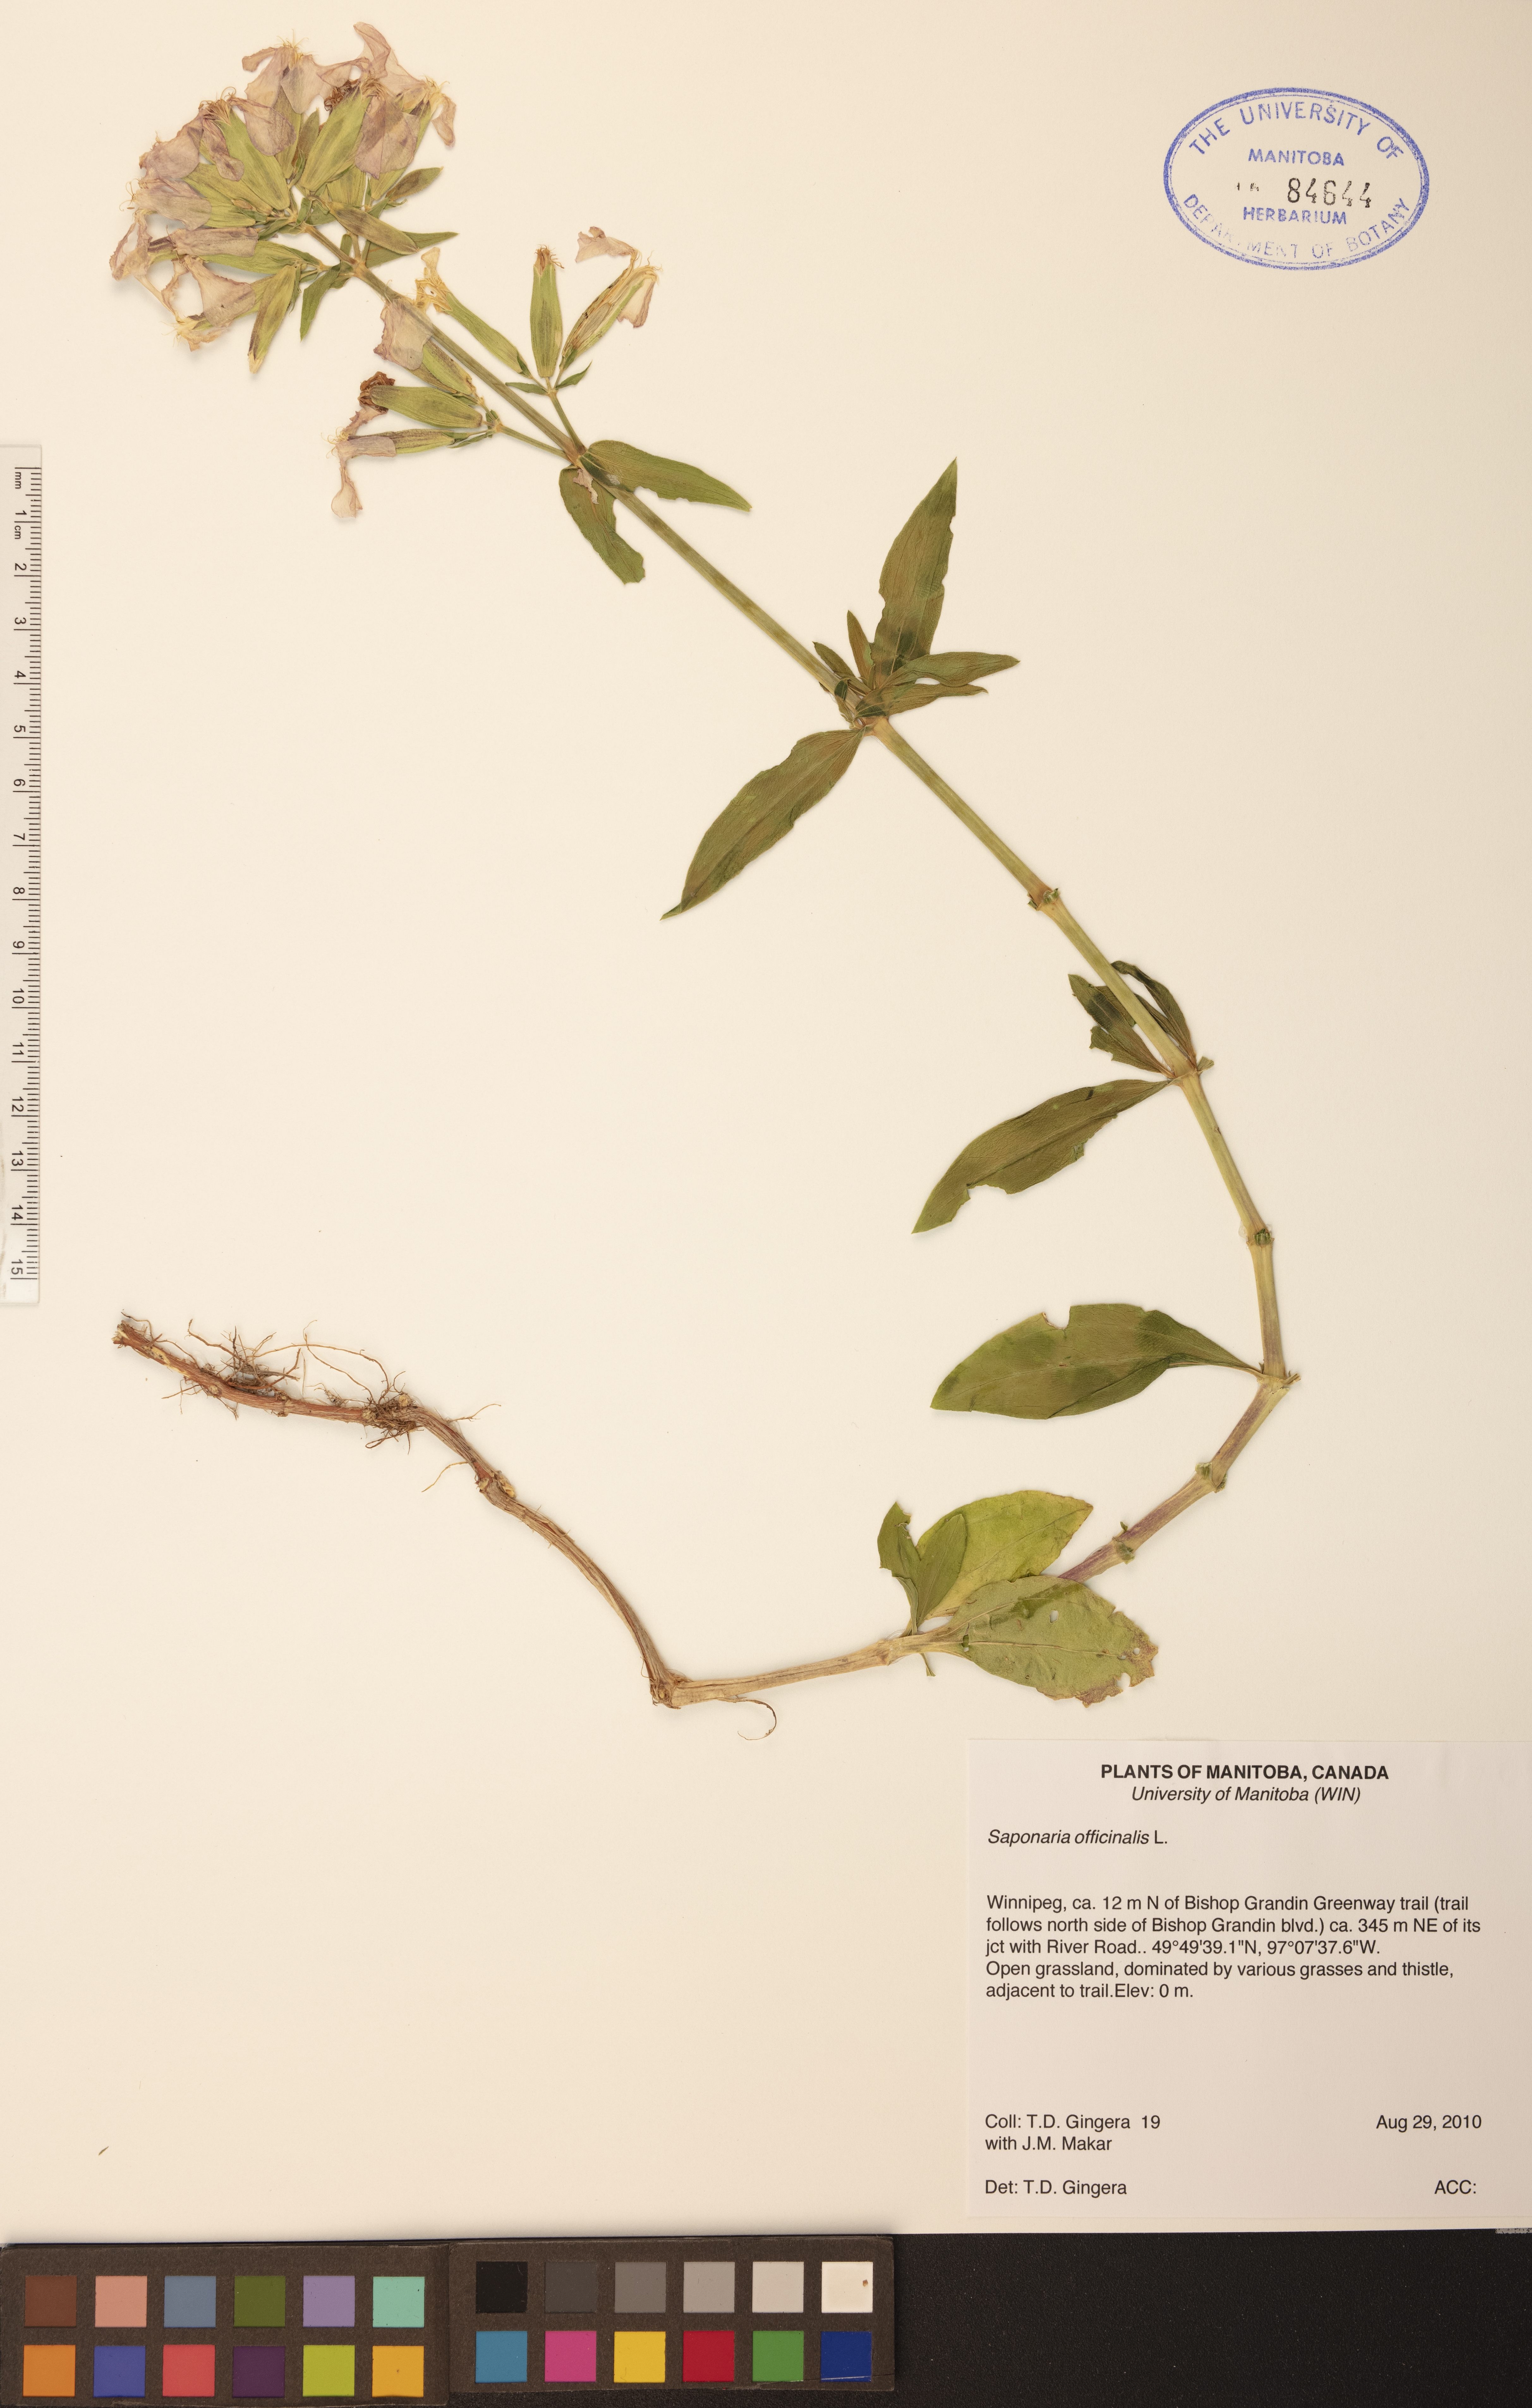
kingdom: Plantae
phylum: Tracheophyta
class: Magnoliopsida
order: Caryophyllales
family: Caryophyllaceae
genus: Saponaria
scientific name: Saponaria officinalis
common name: Soapwort
